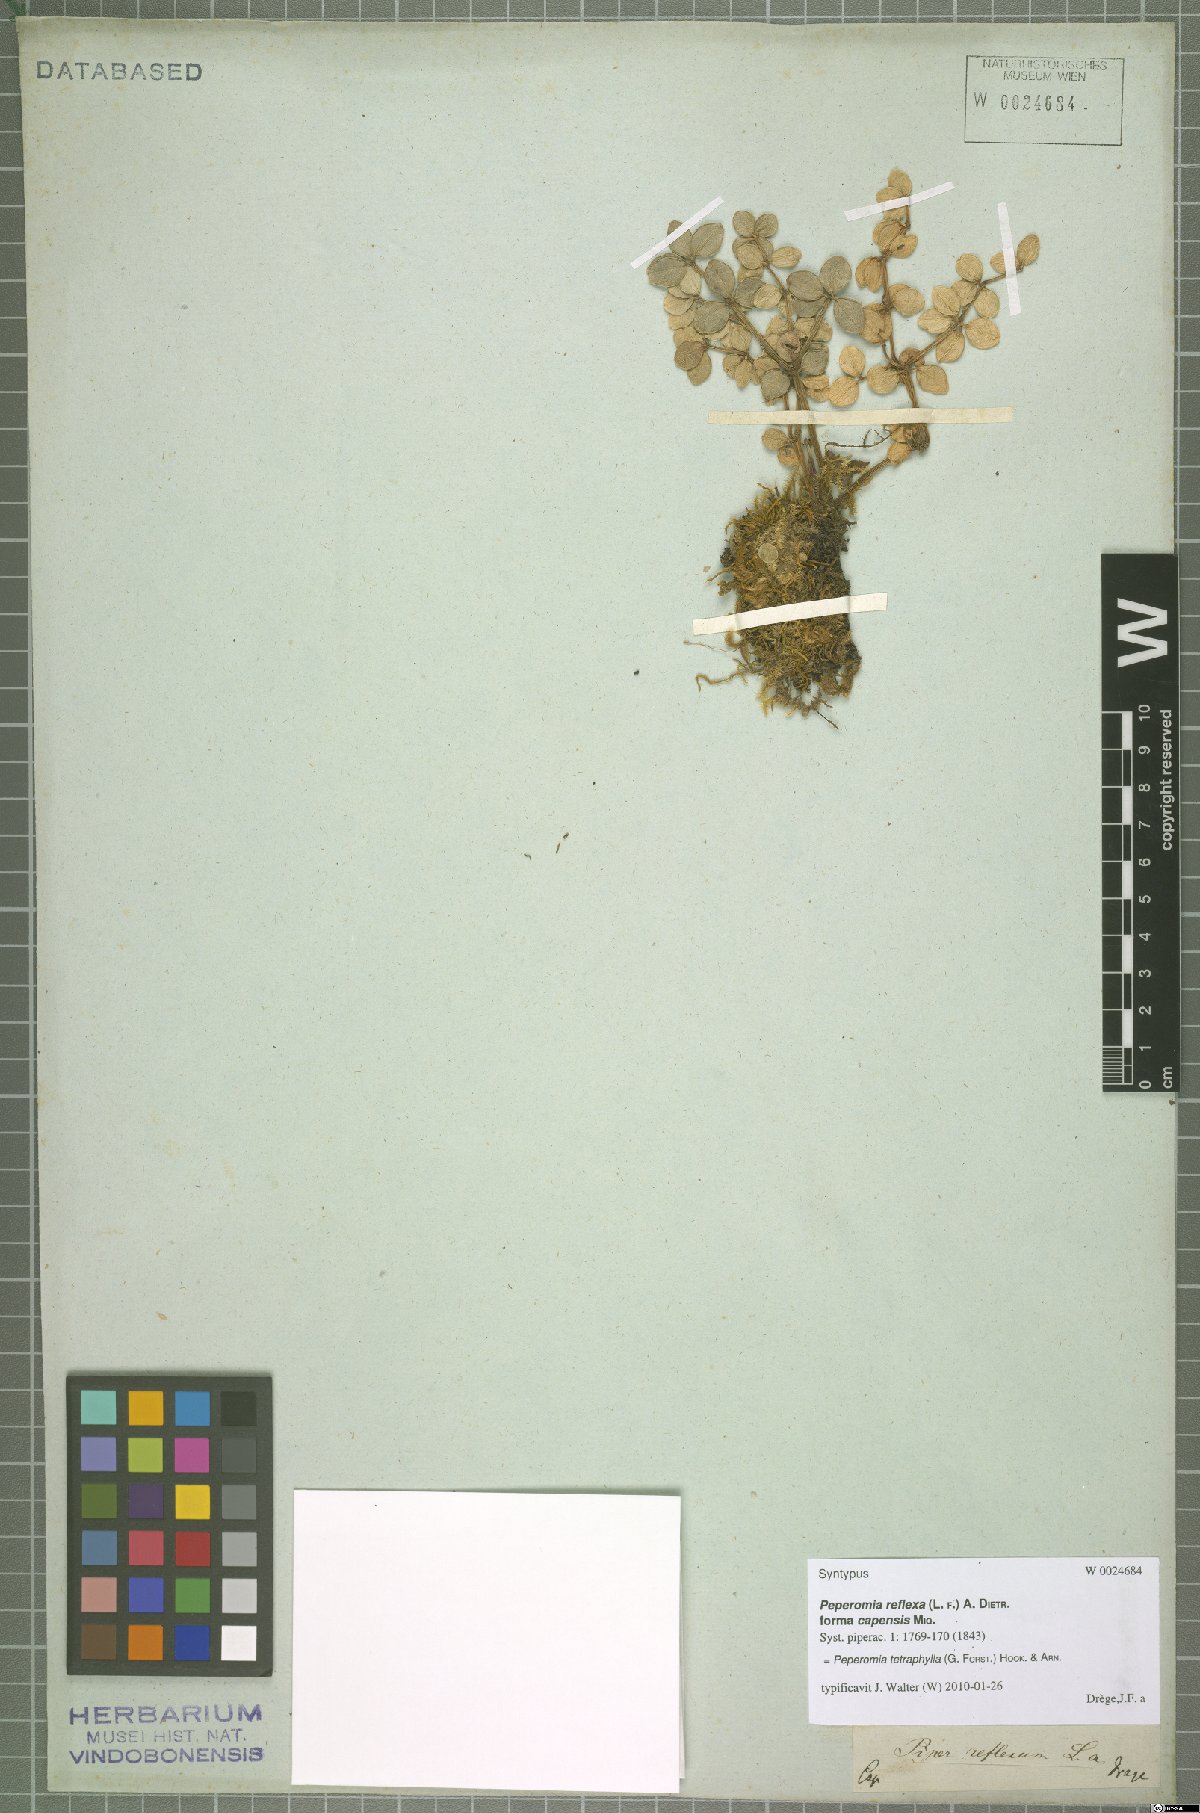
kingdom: Plantae
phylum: Tracheophyta
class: Magnoliopsida
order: Piperales
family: Piperaceae
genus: Peperomia
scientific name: Peperomia tetraphylla
